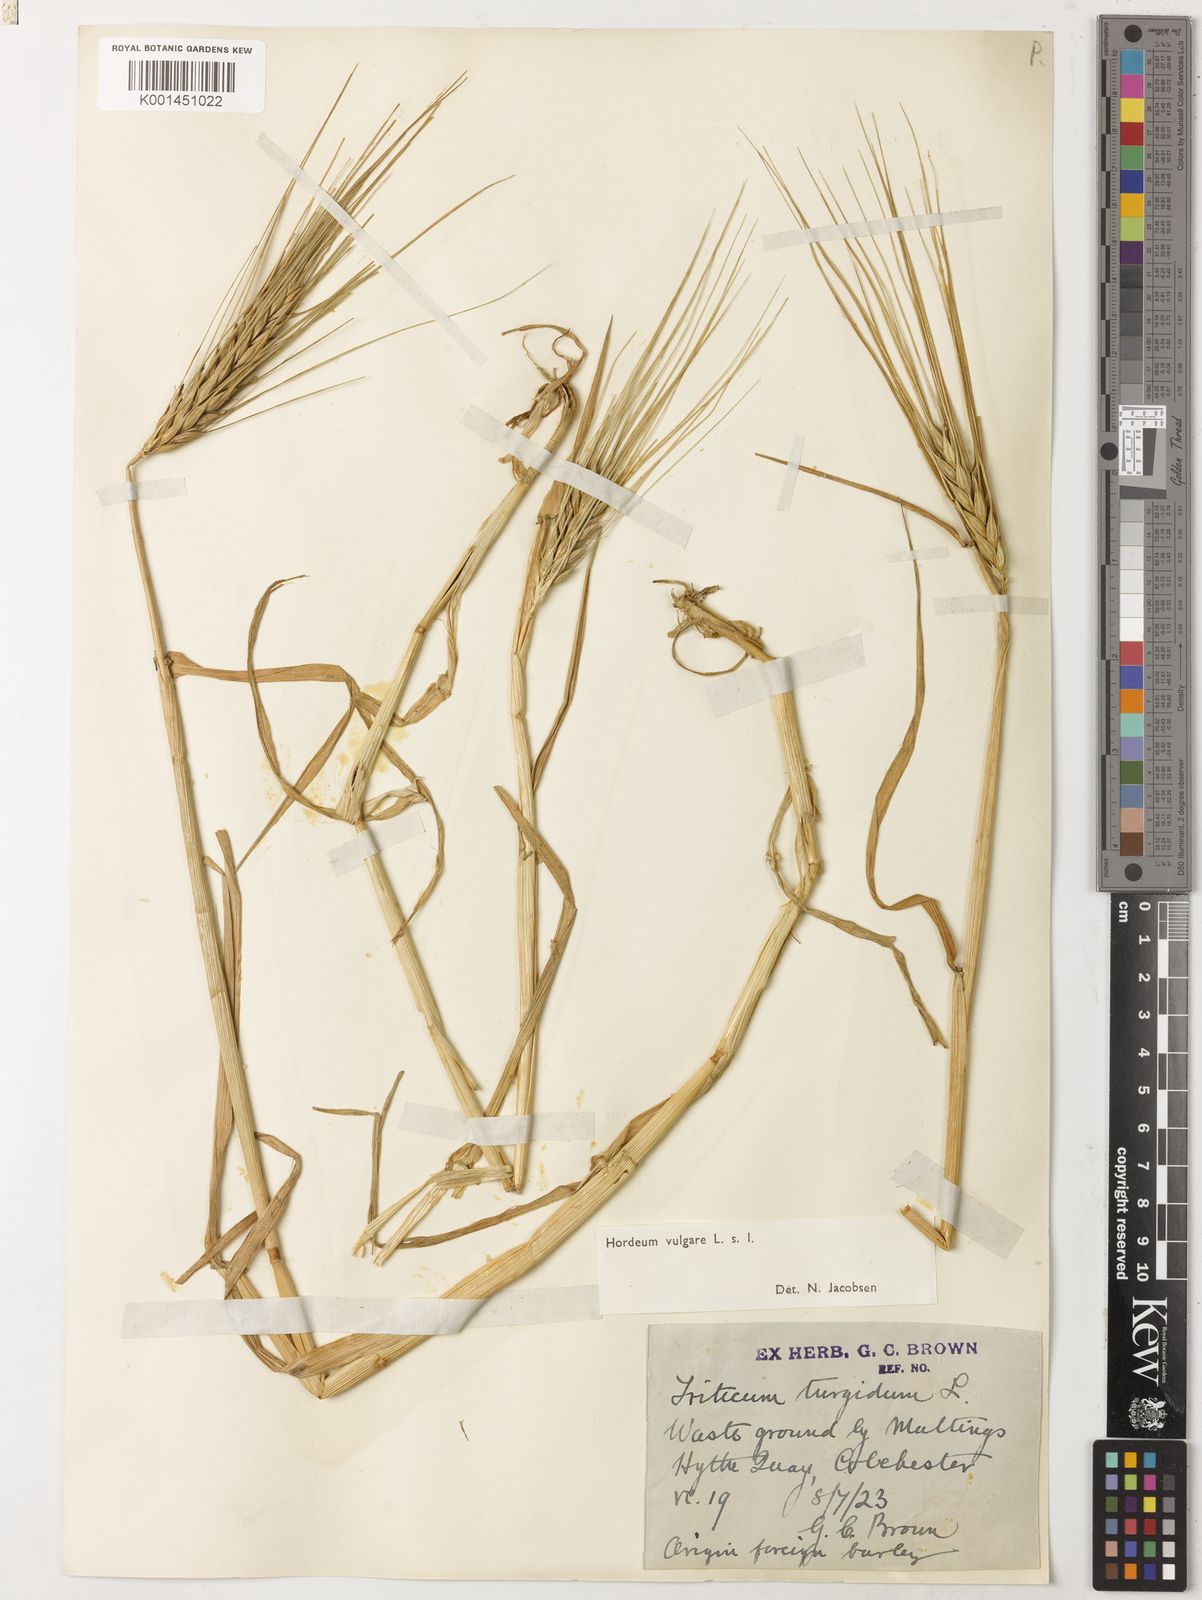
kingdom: Plantae
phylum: Tracheophyta
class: Liliopsida
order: Poales
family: Poaceae
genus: Hordeum
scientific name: Hordeum vulgare
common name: Common barley
